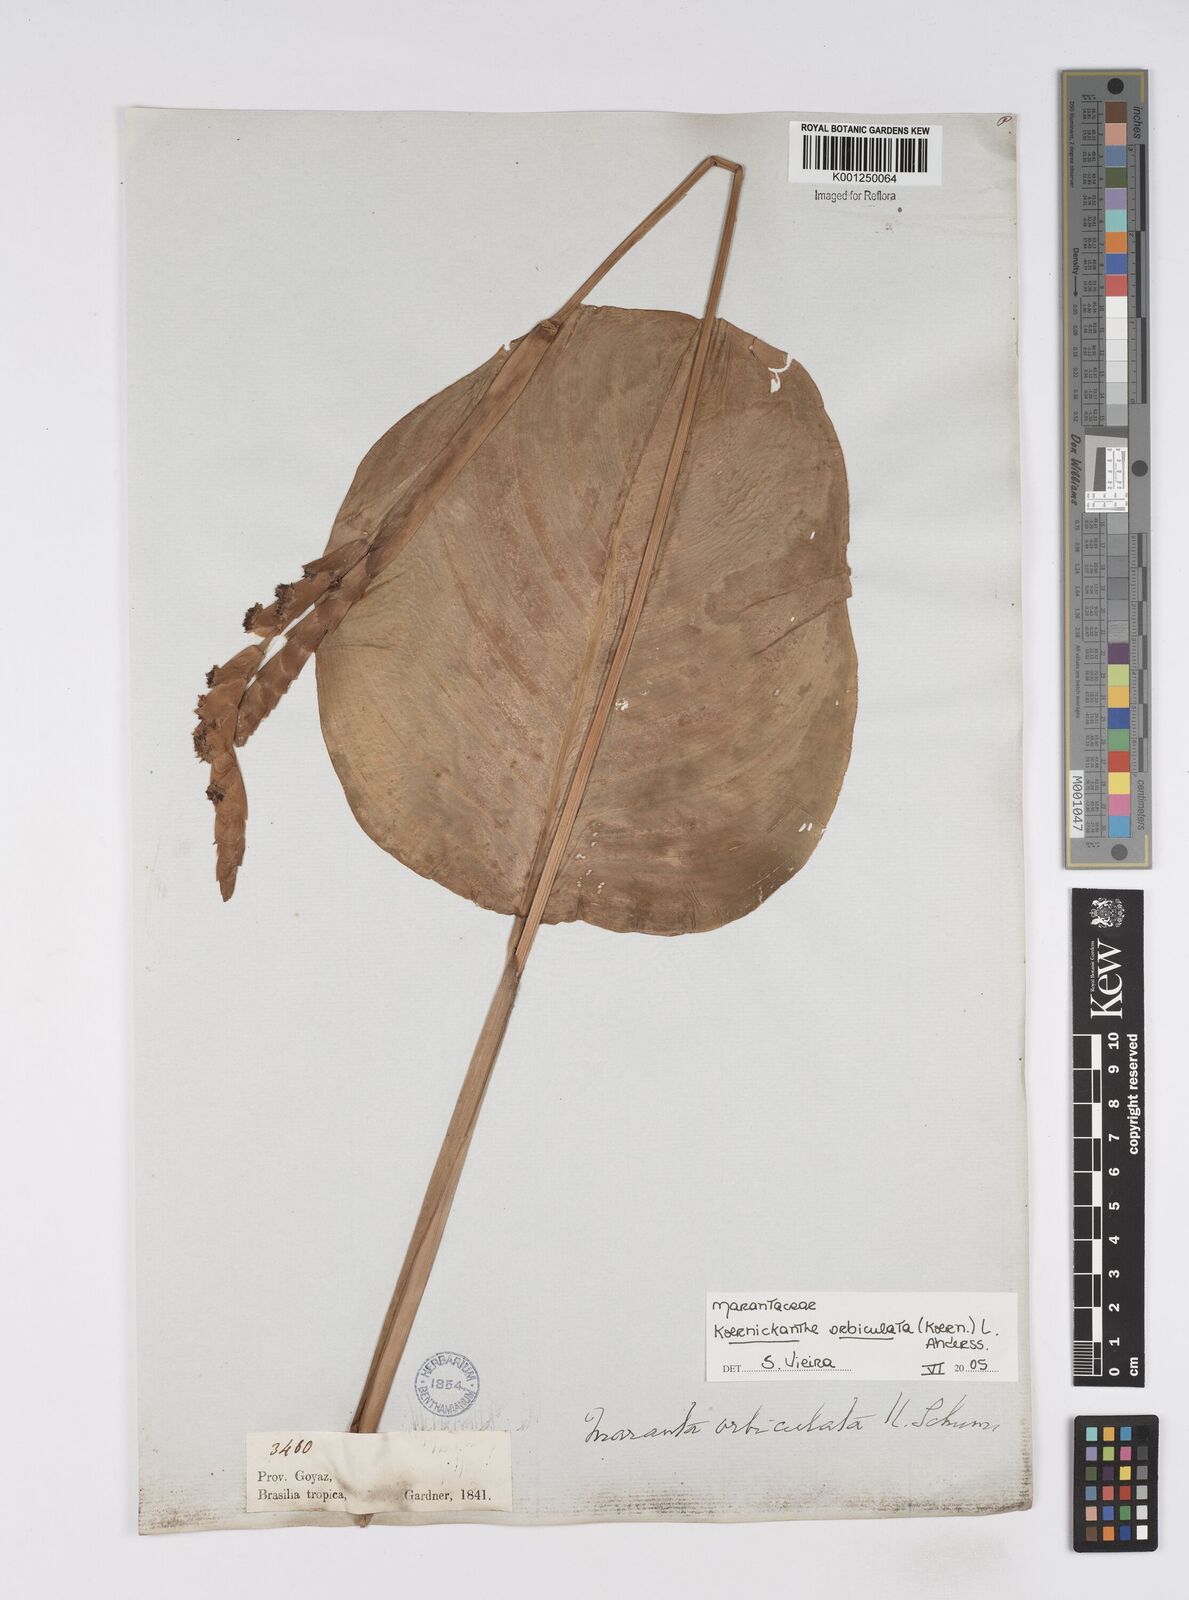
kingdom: Plantae
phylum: Tracheophyta
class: Liliopsida
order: Zingiberales
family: Marantaceae
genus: Koernickanthe
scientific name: Koernickanthe orbiculata
